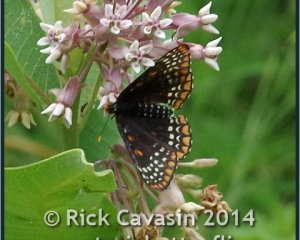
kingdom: Animalia
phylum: Arthropoda
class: Insecta
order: Lepidoptera
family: Nymphalidae
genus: Euphydryas
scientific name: Euphydryas phaeton
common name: Baltimore Checkerspot
